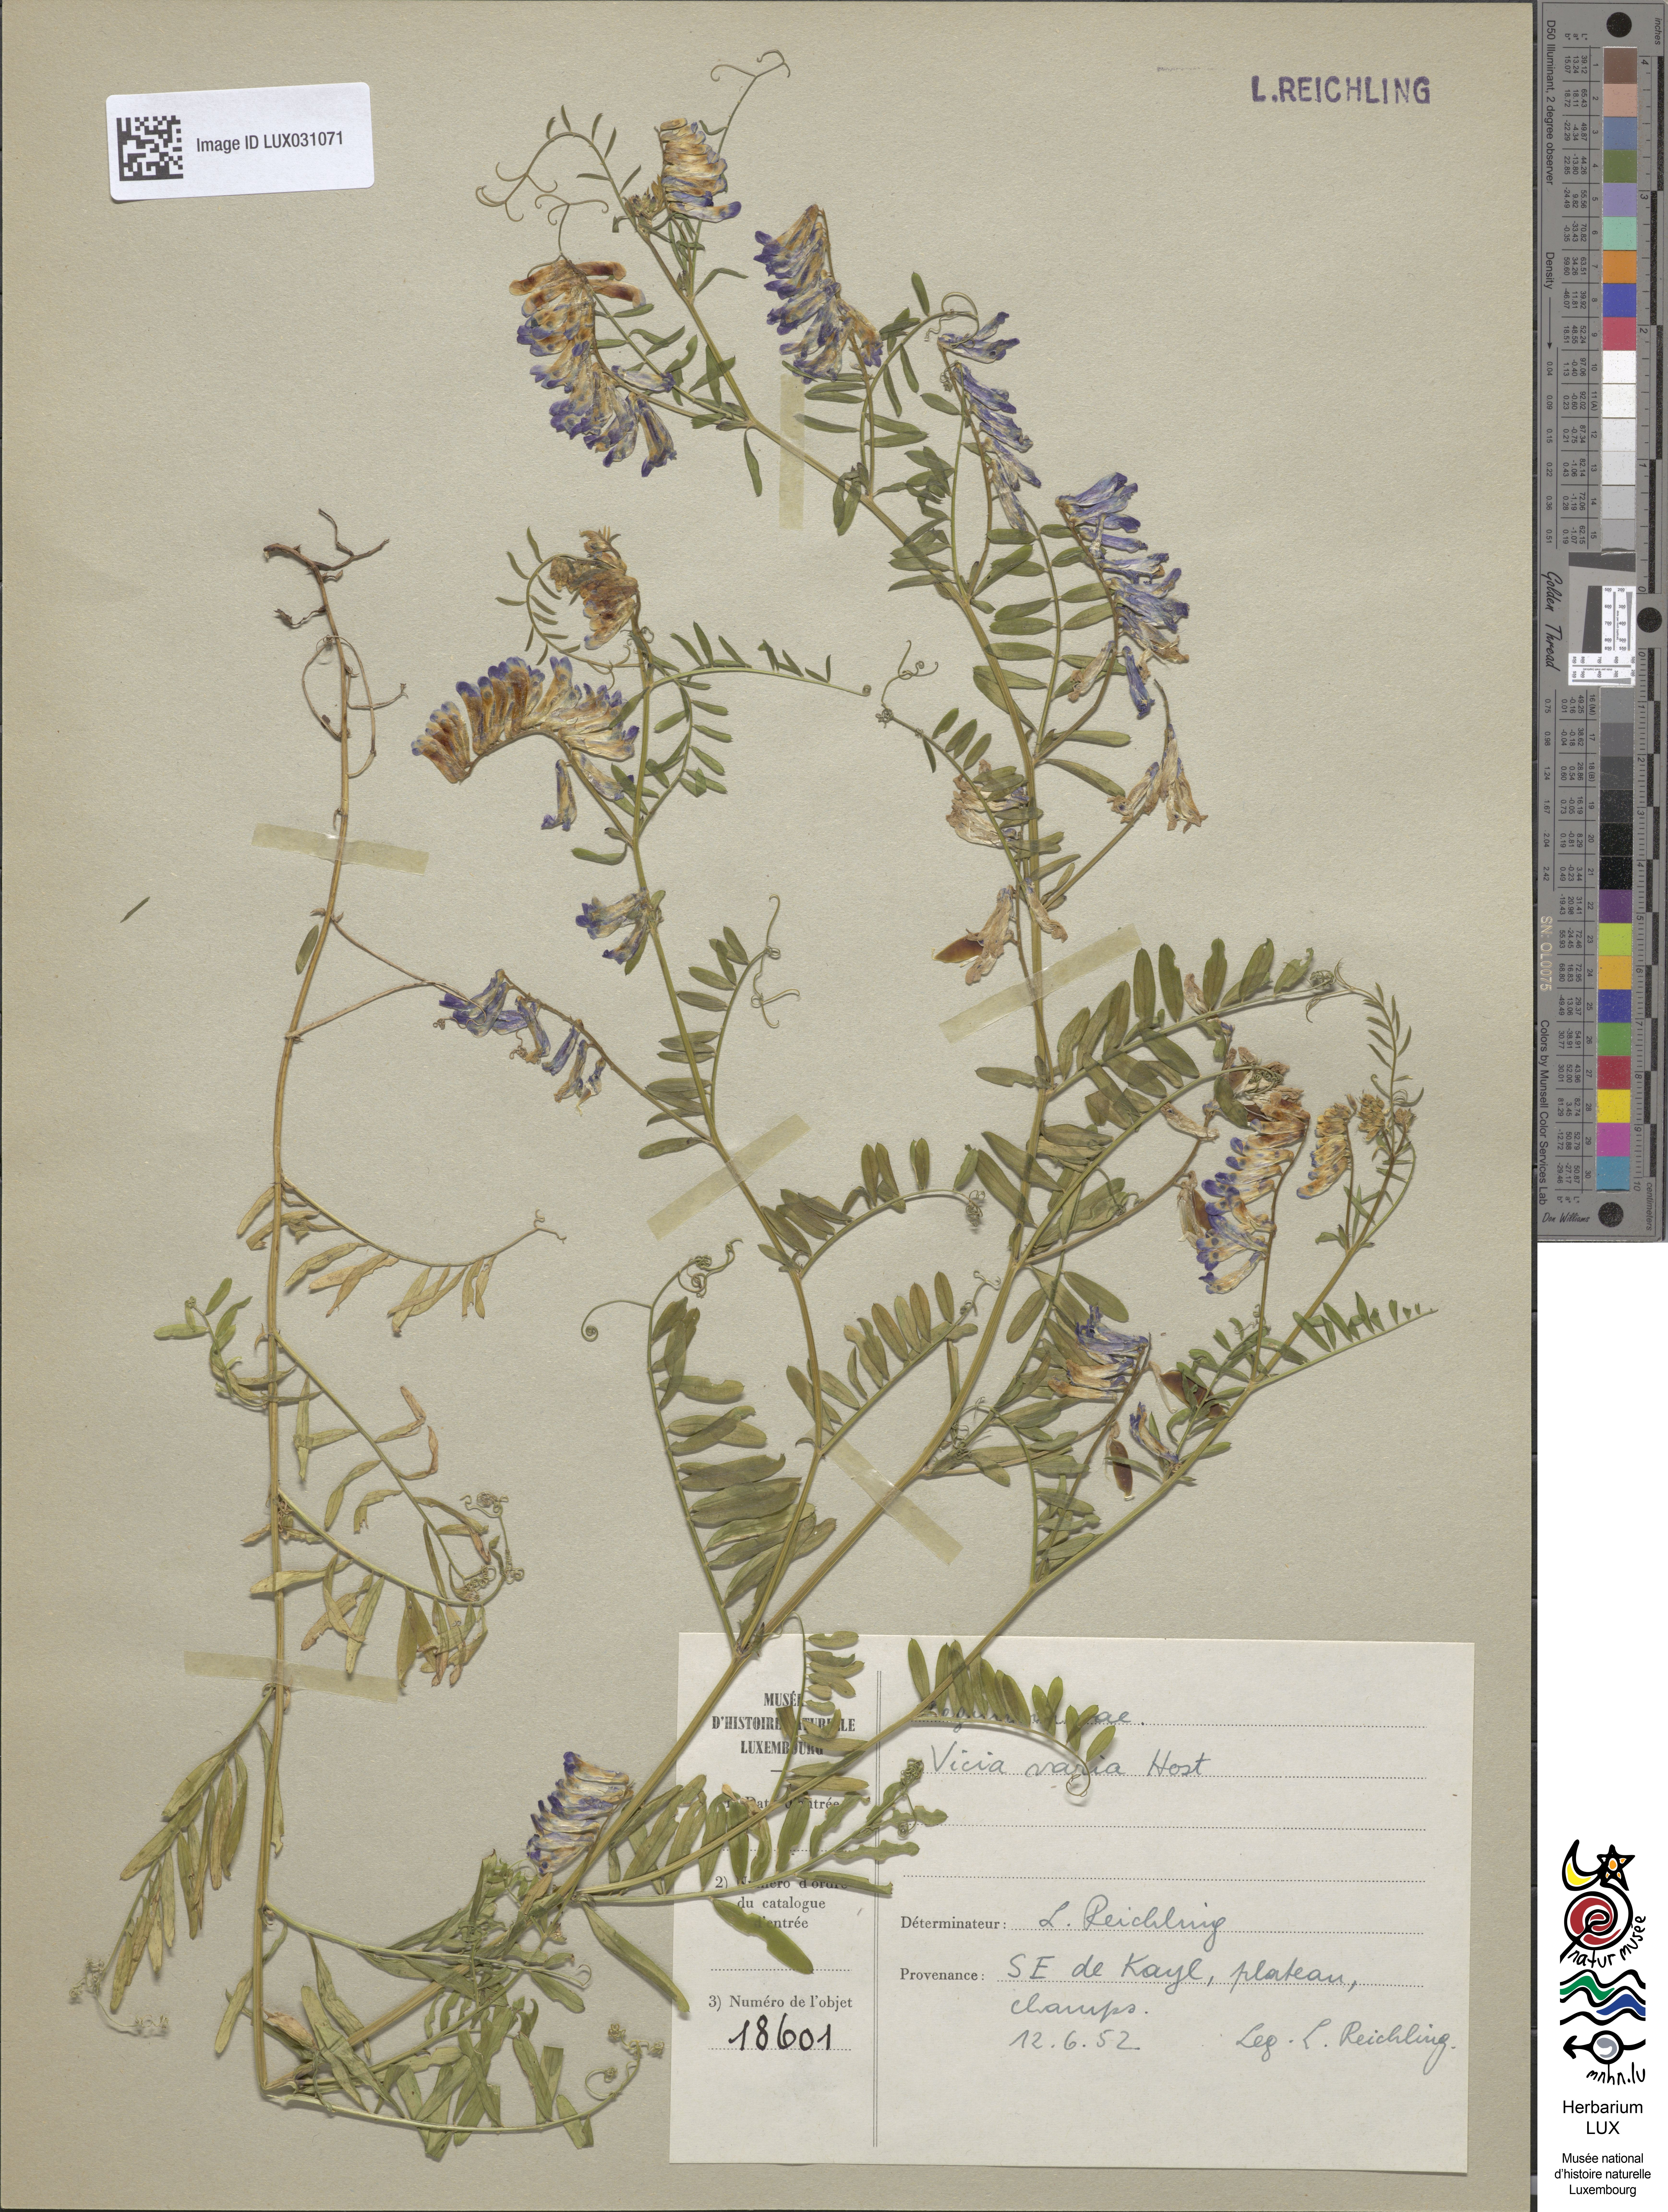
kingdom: Plantae
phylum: Tracheophyta
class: Magnoliopsida
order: Fabales
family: Fabaceae
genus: Vicia
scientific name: Vicia villosa
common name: Fodder vetch
